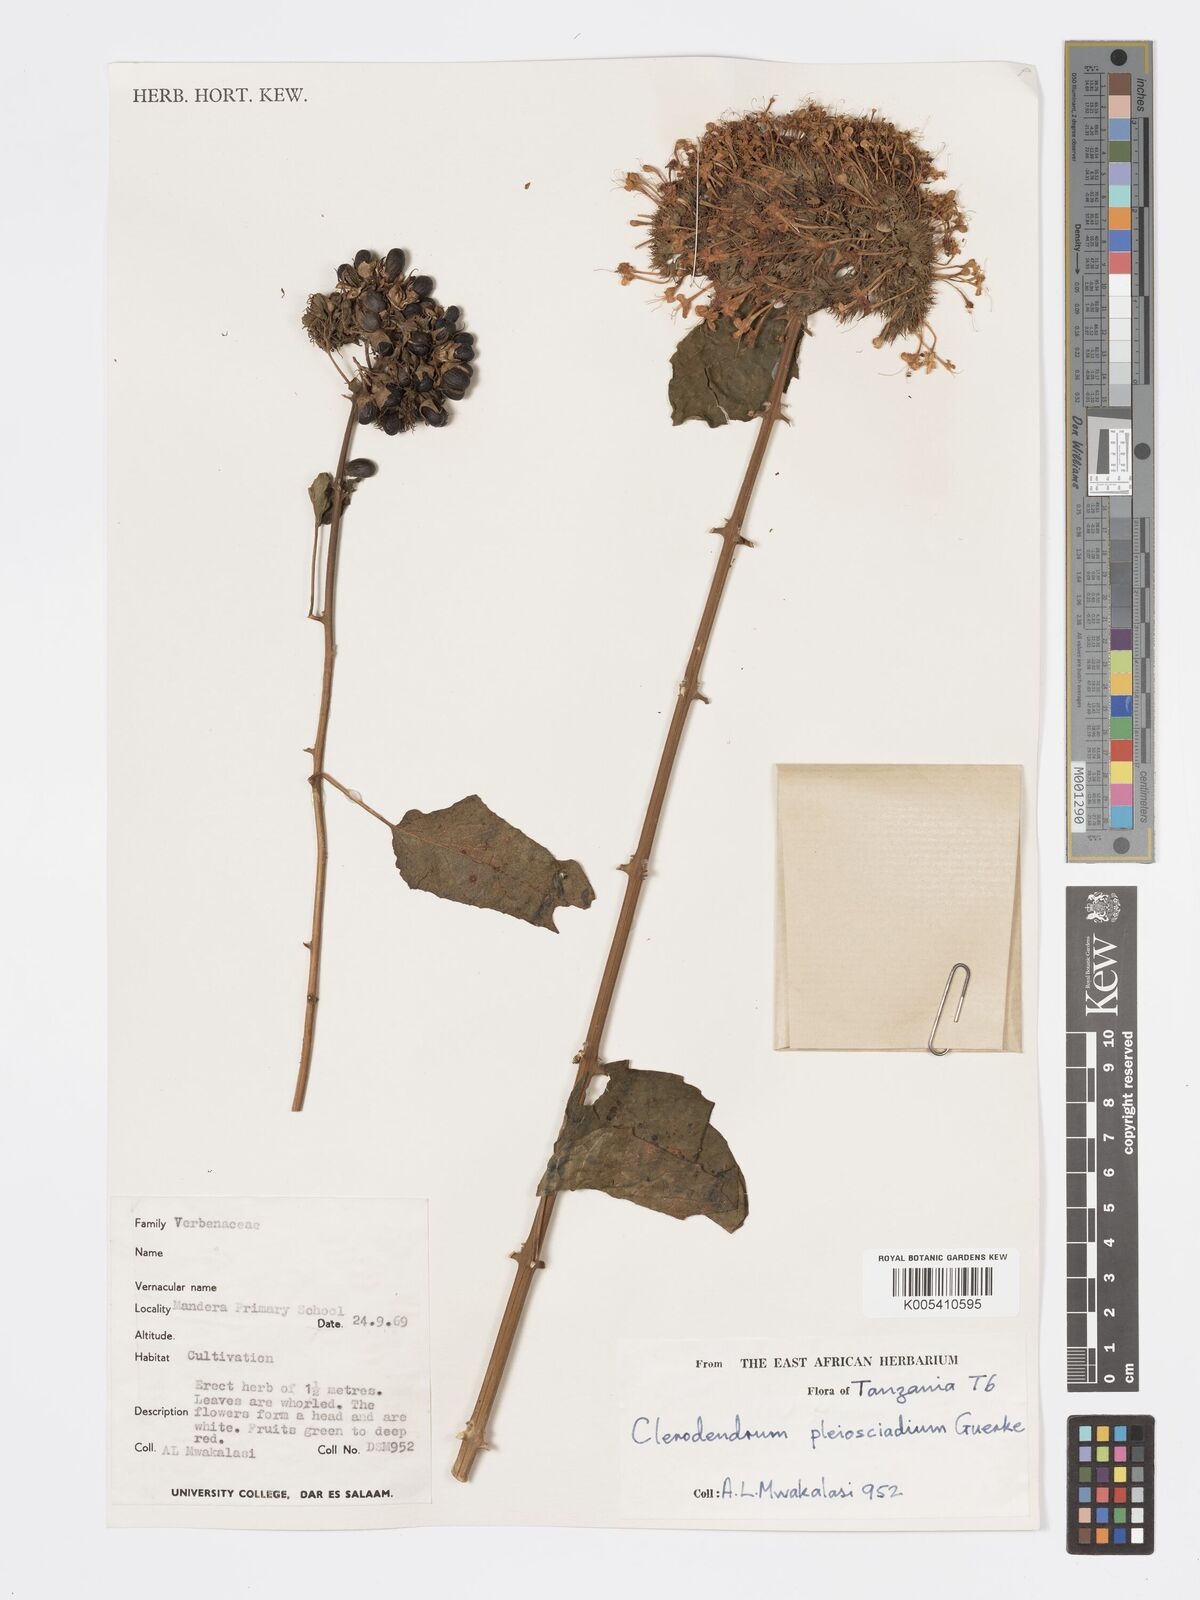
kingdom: Plantae
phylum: Tracheophyta
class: Magnoliopsida
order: Lamiales
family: Lamiaceae
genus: Clerodendrum
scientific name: Clerodendrum pleiosciadium
